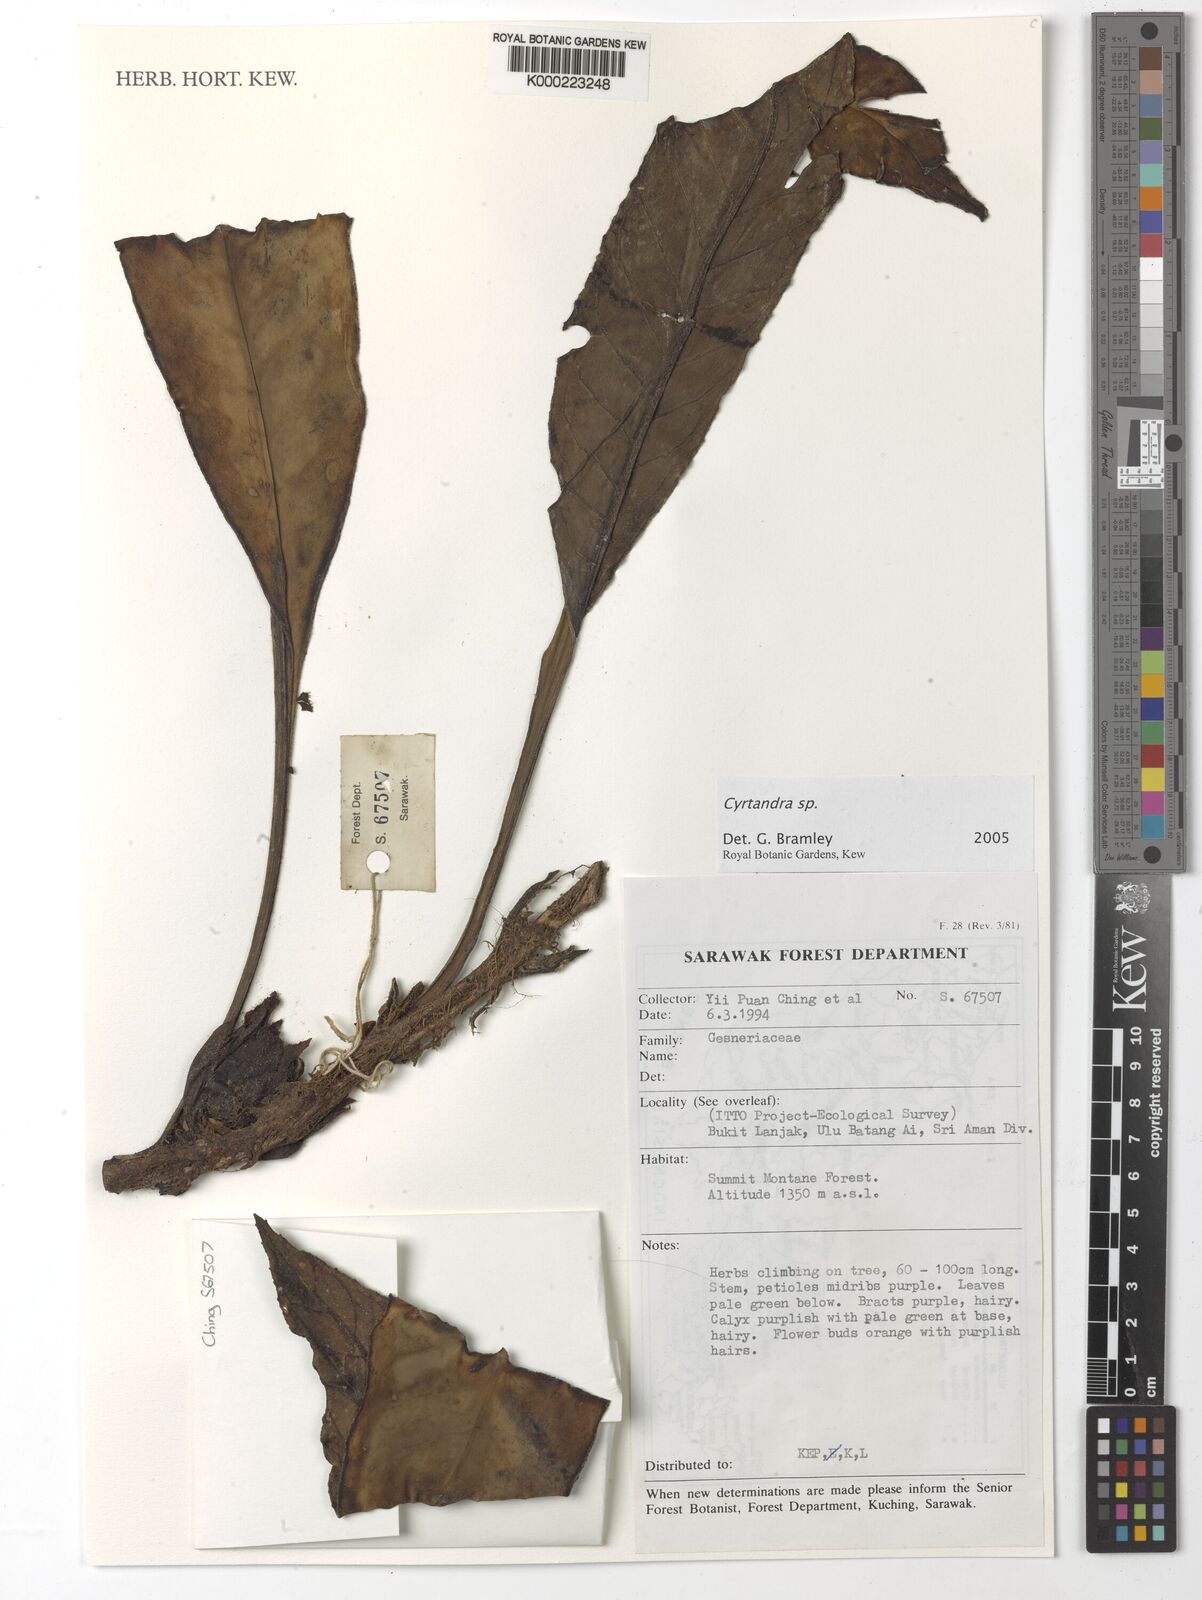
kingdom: Plantae
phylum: Tracheophyta
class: Magnoliopsida
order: Lamiales
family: Gesneriaceae
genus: Cyrtandra
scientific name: Cyrtandra
